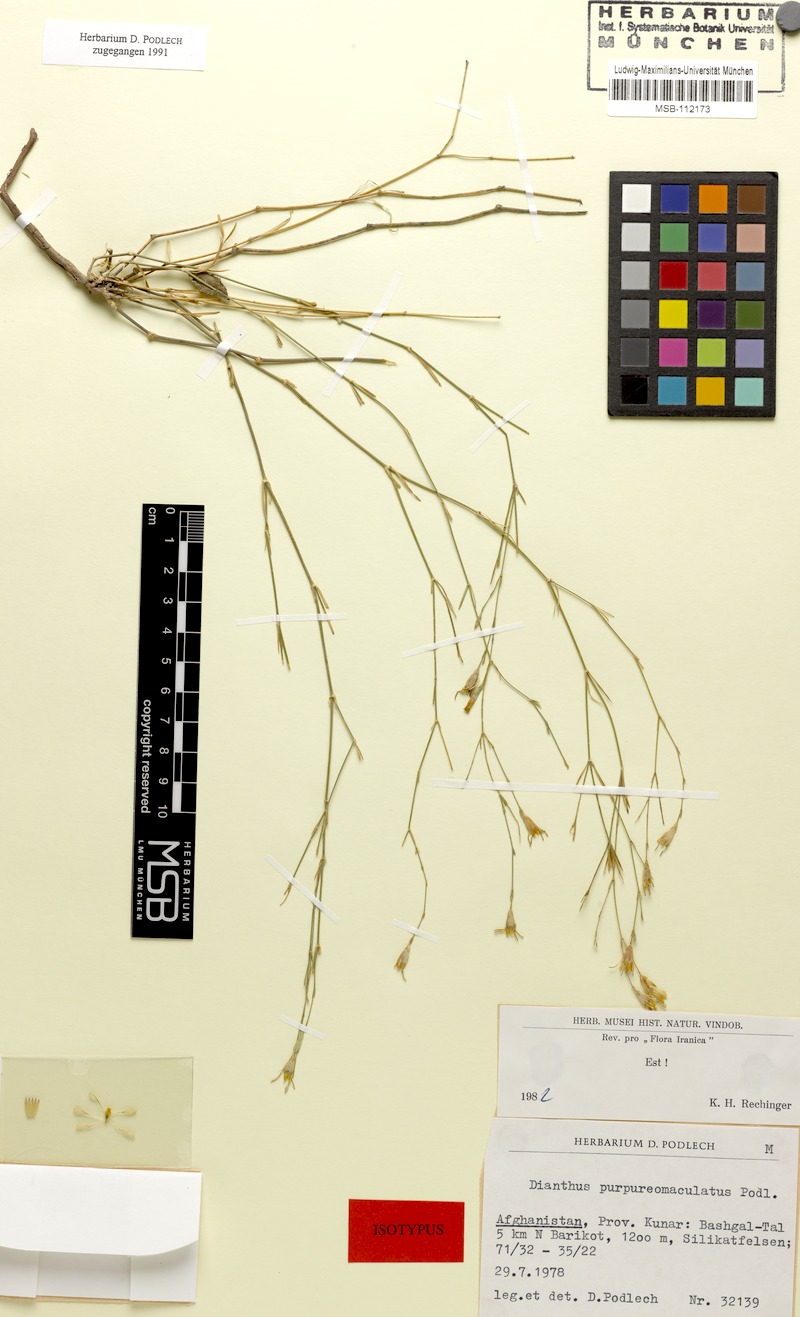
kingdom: Plantae
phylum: Tracheophyta
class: Magnoliopsida
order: Caryophyllales
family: Caryophyllaceae
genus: Dianthus
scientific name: Dianthus purpureimaculatus
